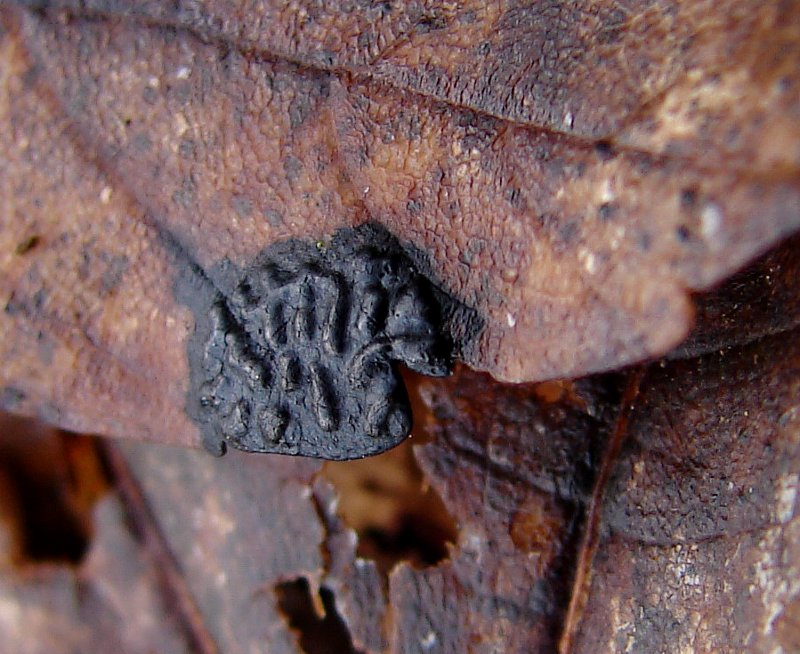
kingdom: Fungi
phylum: Ascomycota
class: Leotiomycetes
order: Rhytismatales
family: Rhytismataceae
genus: Rhytisma
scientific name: Rhytisma acerinum
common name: ahorn-rynkeplet
